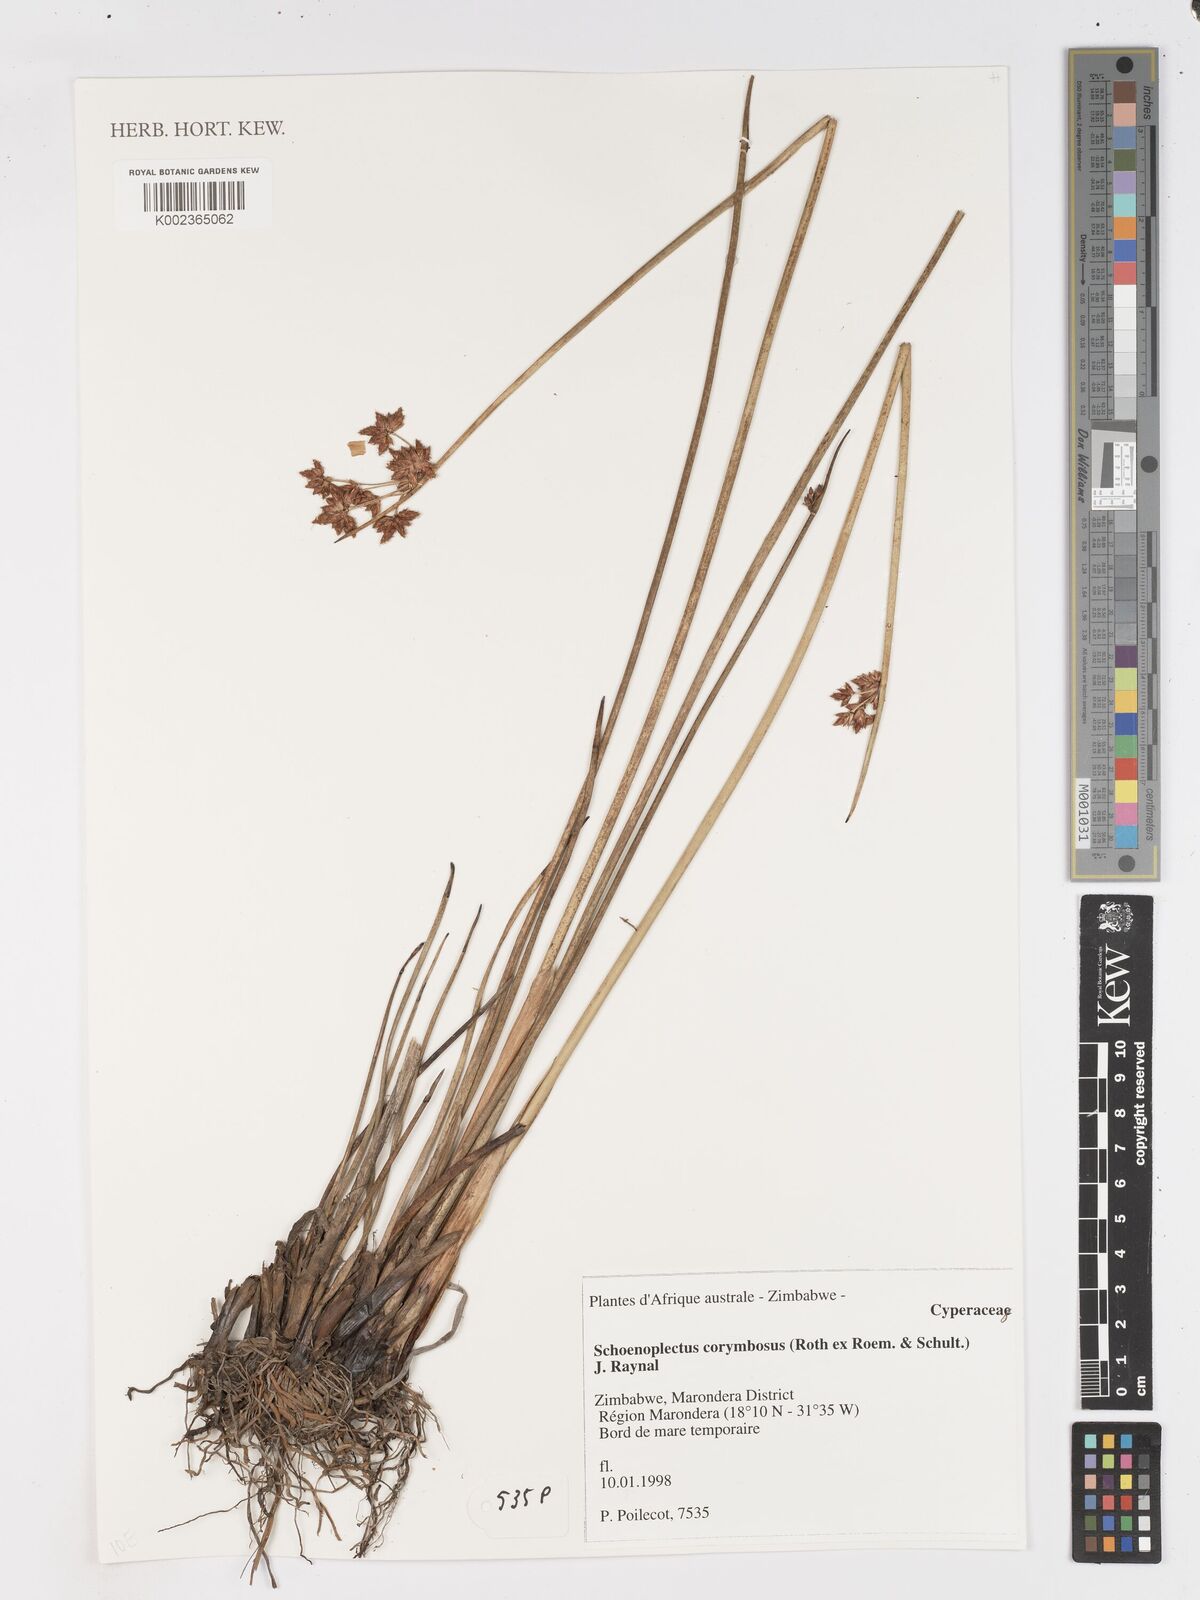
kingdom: Plantae
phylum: Tracheophyta
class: Liliopsida
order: Poales
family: Cyperaceae
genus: Schoenoplectiella
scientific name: Schoenoplectiella brachyceras
